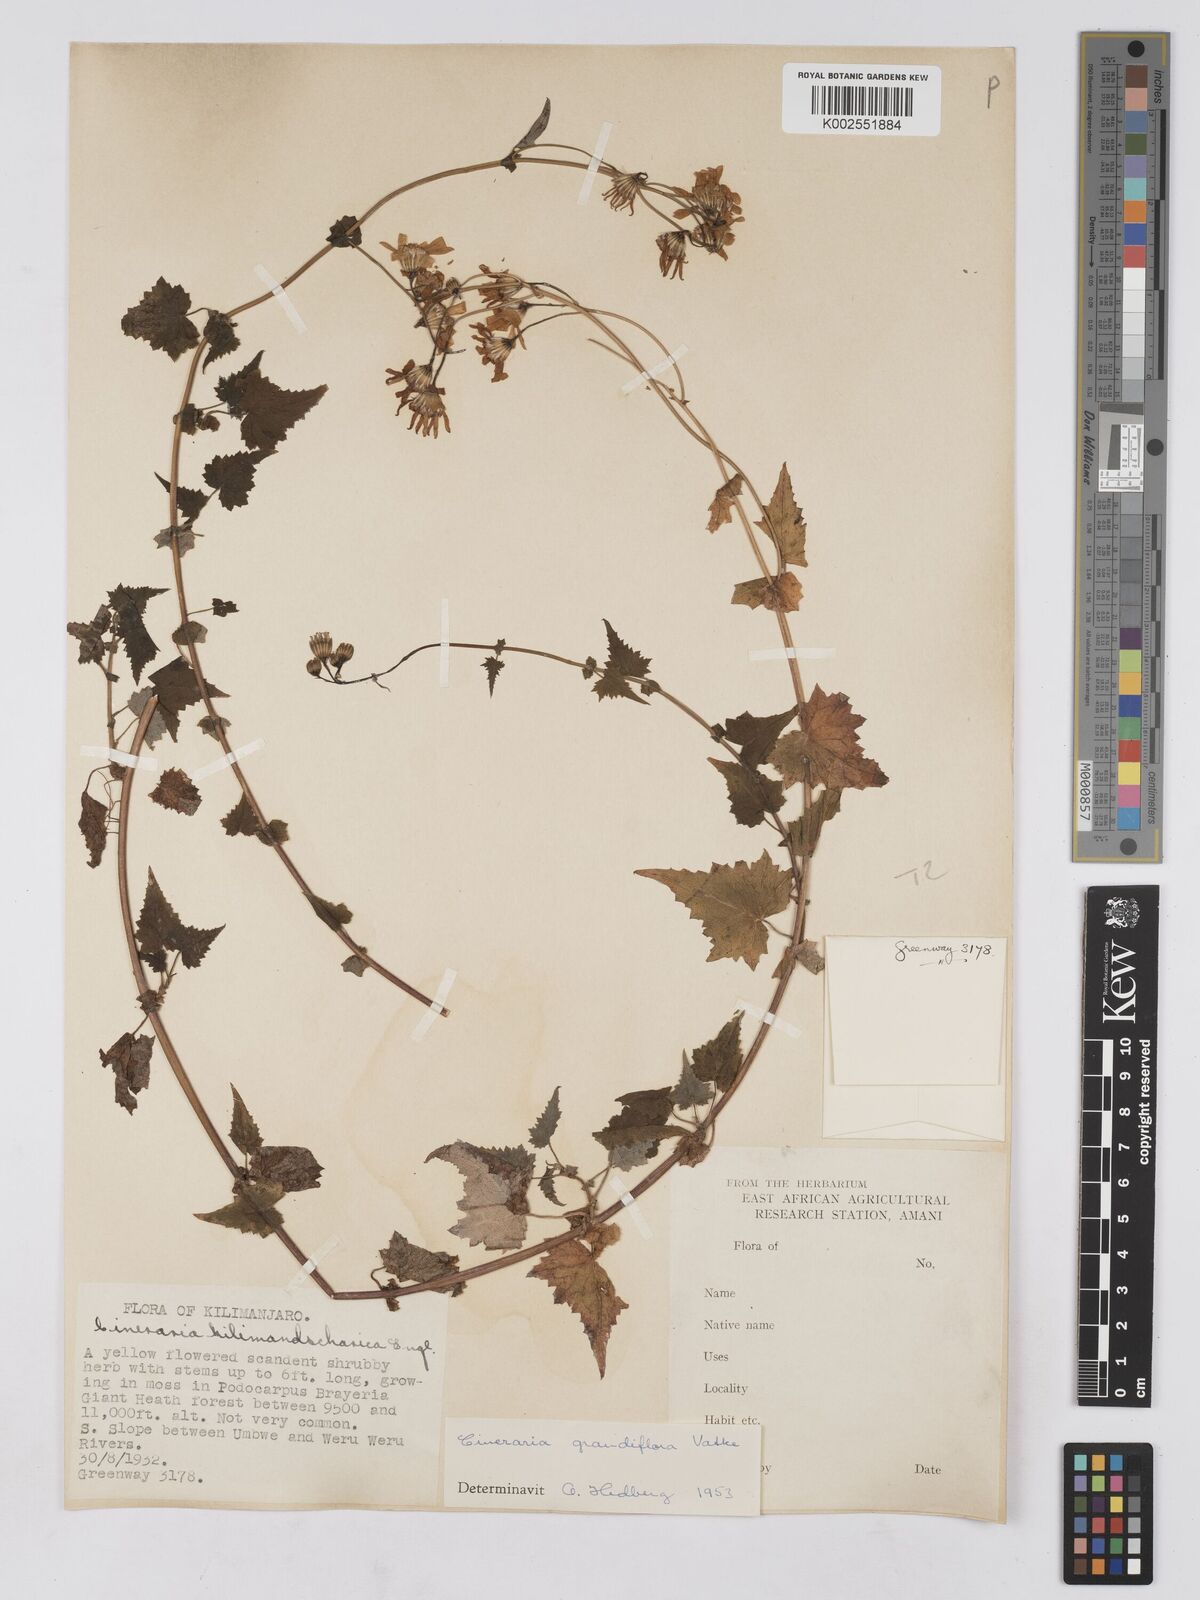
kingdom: Plantae
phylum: Tracheophyta
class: Magnoliopsida
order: Asterales
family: Asteraceae
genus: Cineraria
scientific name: Cineraria deltoidea
